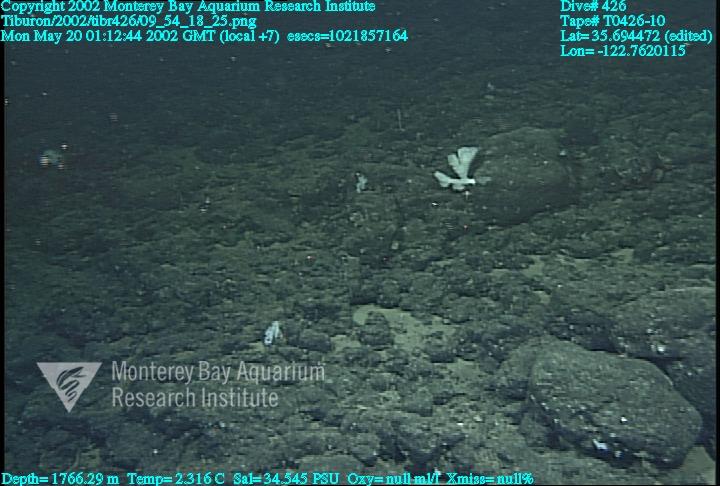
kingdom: Animalia
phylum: Porifera
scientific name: Porifera
